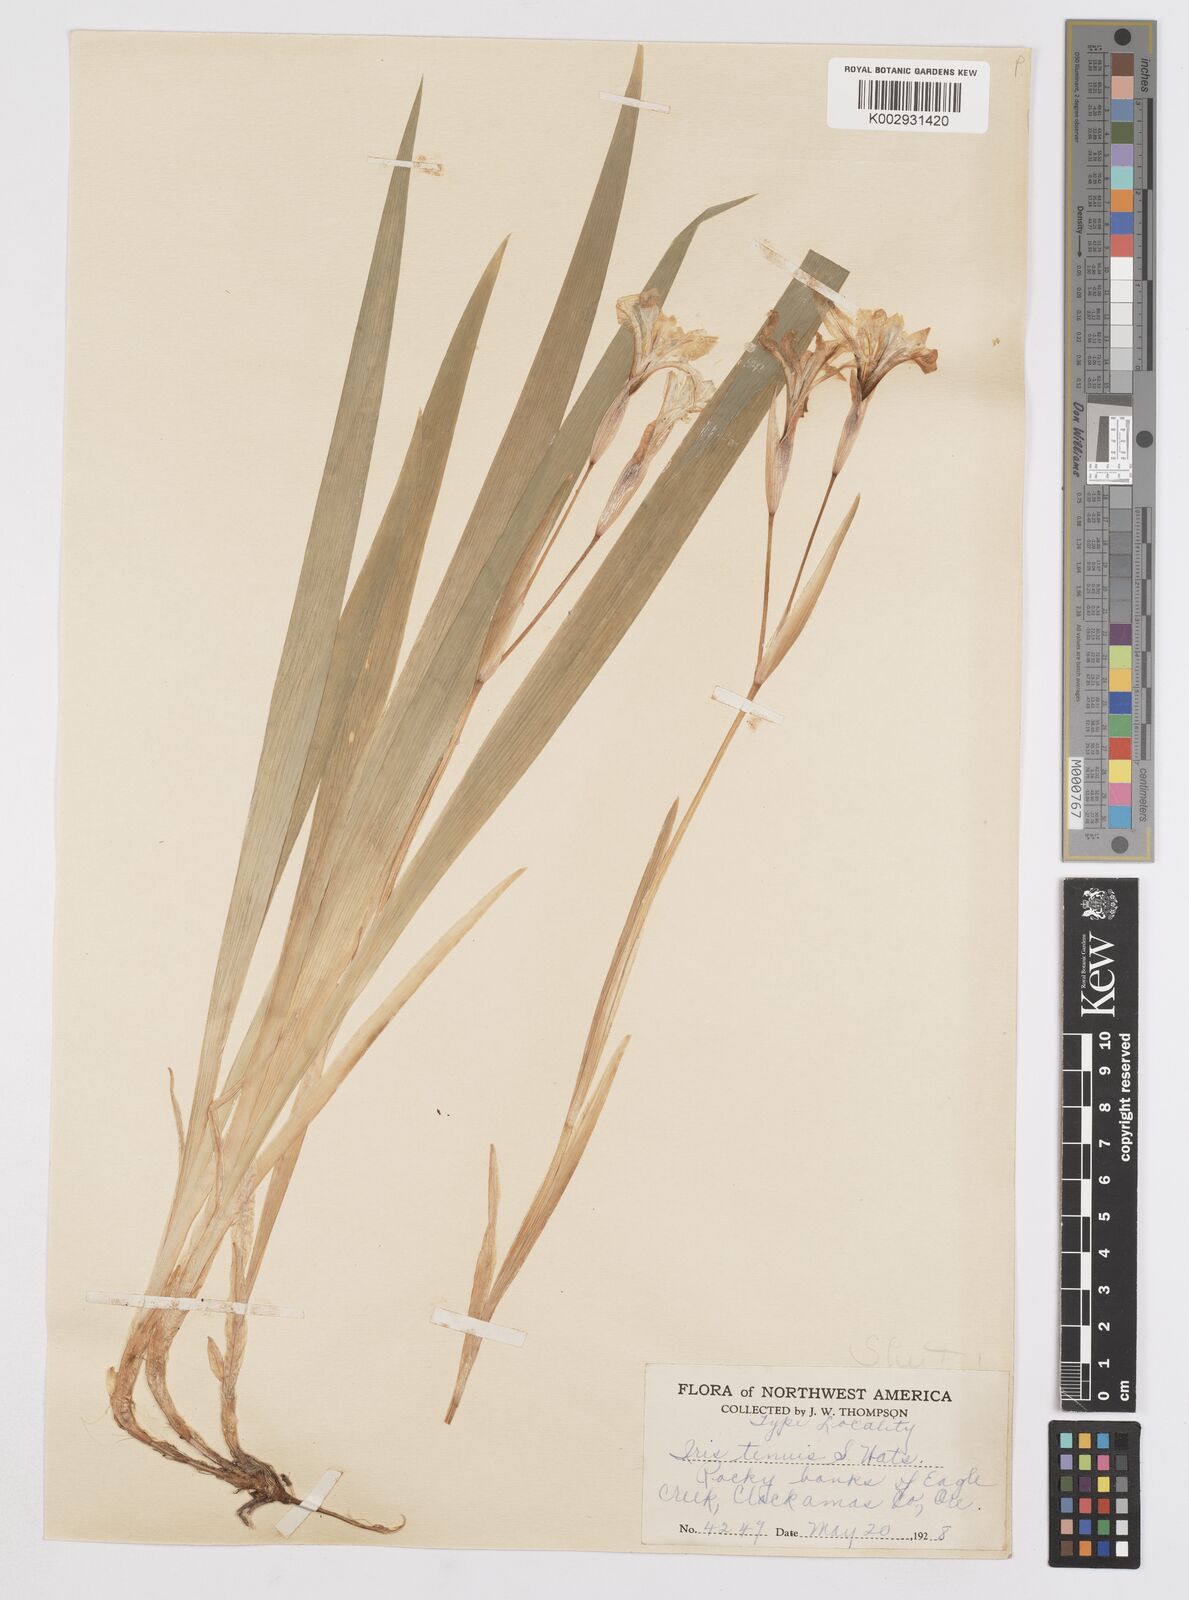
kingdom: Plantae
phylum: Tracheophyta
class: Liliopsida
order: Asparagales
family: Iridaceae
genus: Iris
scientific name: Iris tenuis
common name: Clackamas iris
